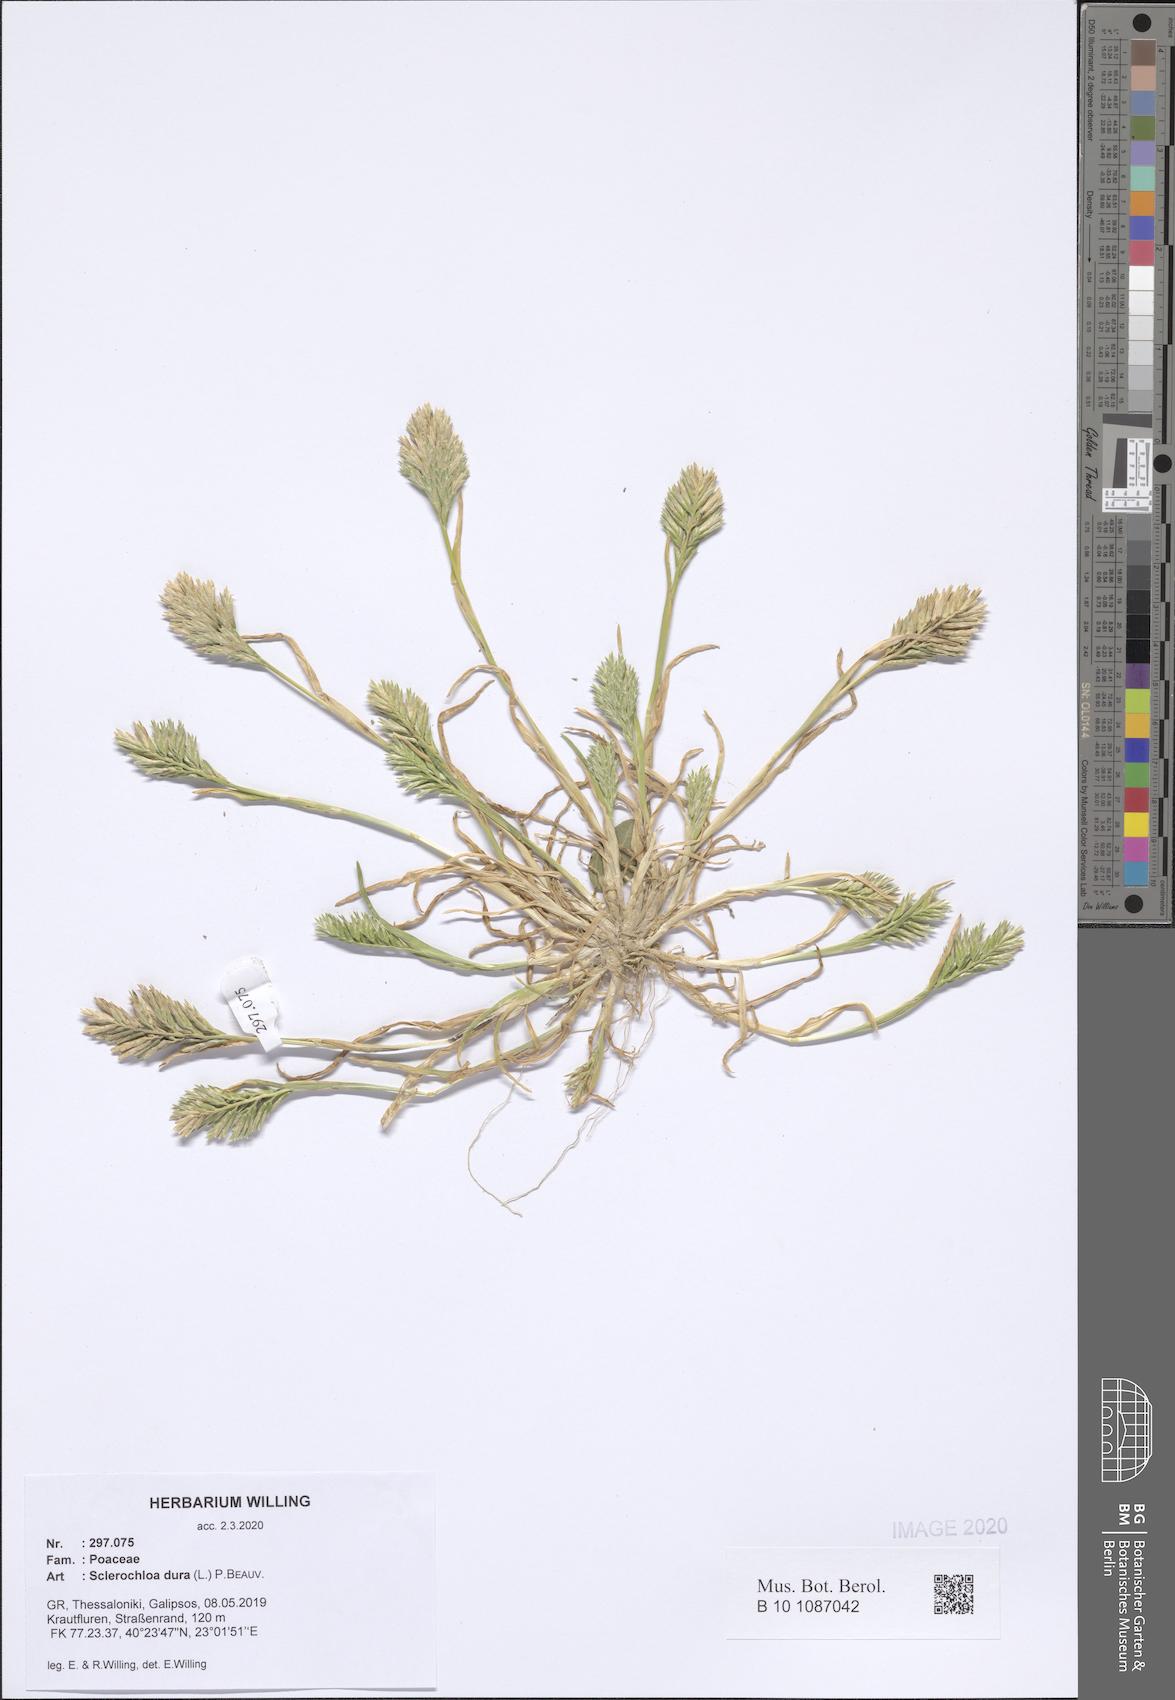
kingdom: Plantae
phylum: Tracheophyta
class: Liliopsida
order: Poales
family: Poaceae
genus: Sclerochloa
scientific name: Sclerochloa dura
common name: Common hardgrass
